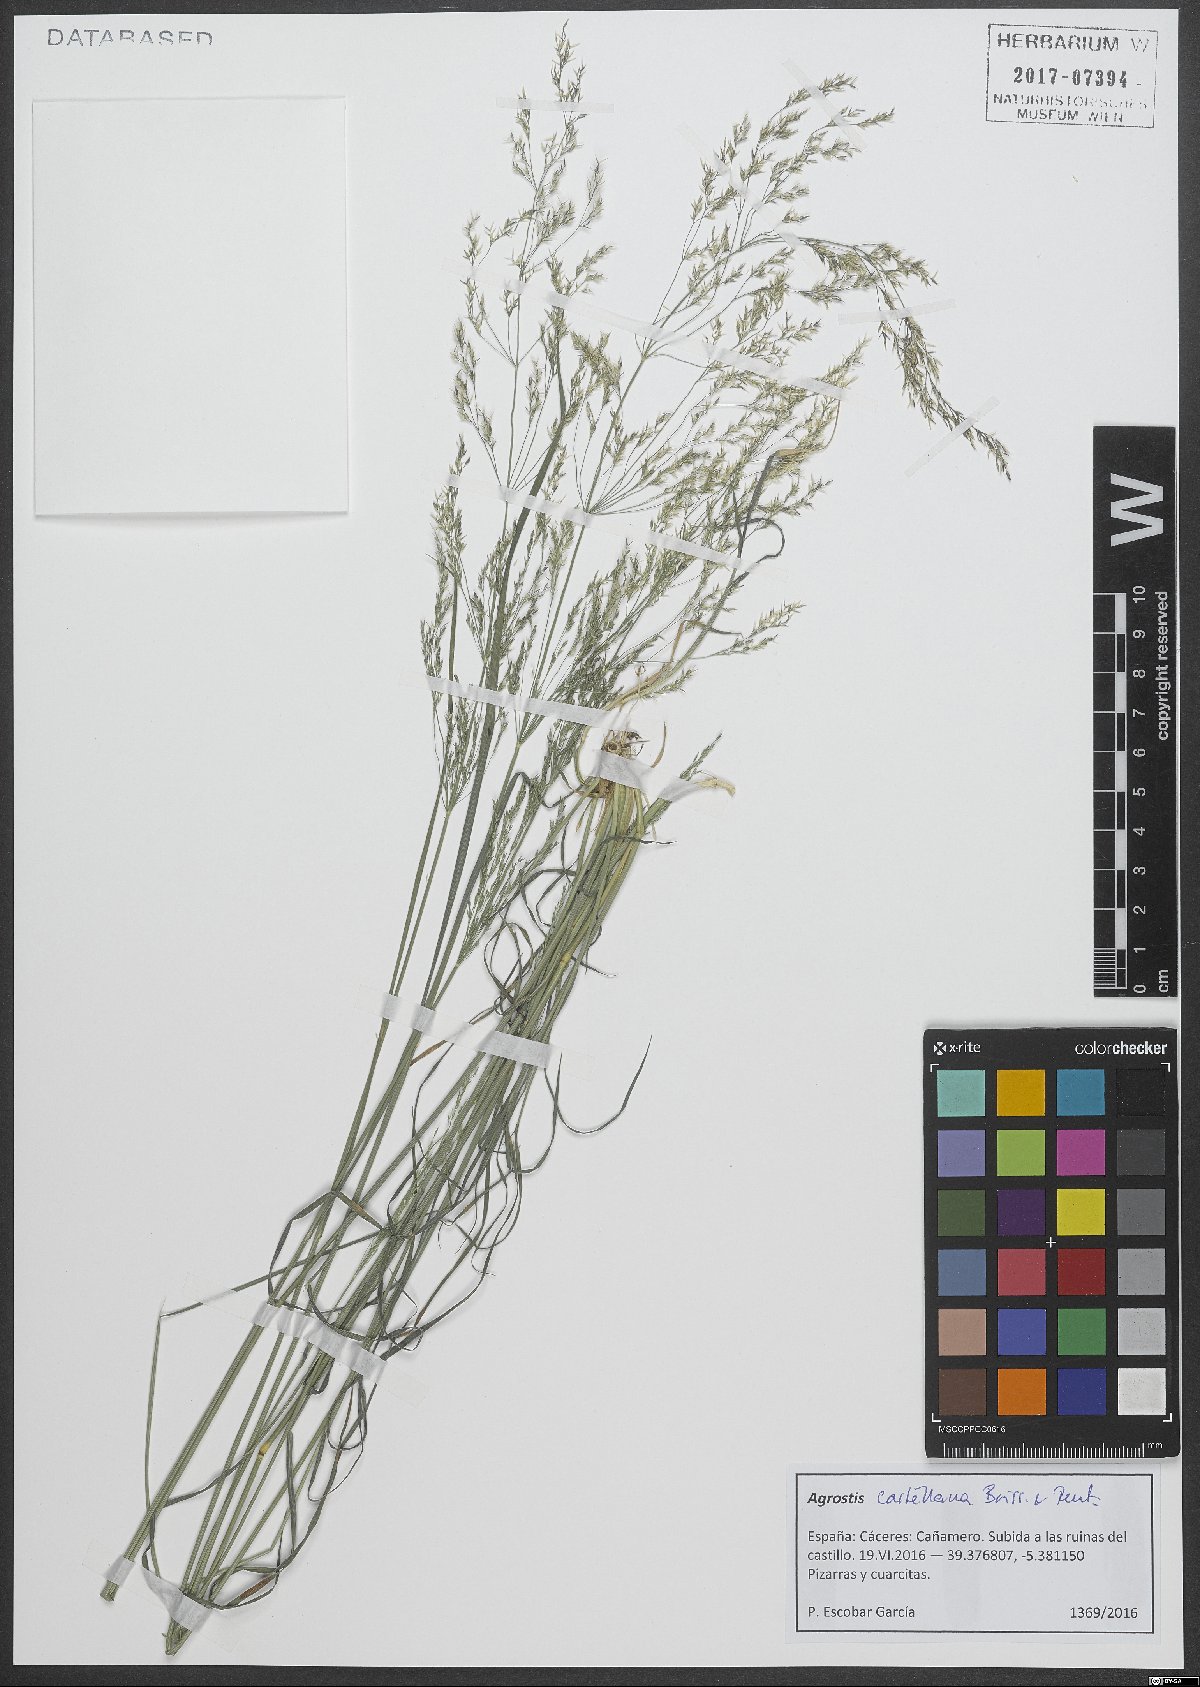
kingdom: Plantae
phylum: Tracheophyta
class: Liliopsida
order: Poales
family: Poaceae
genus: Agrostis
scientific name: Agrostis castellana
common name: Highland bent
